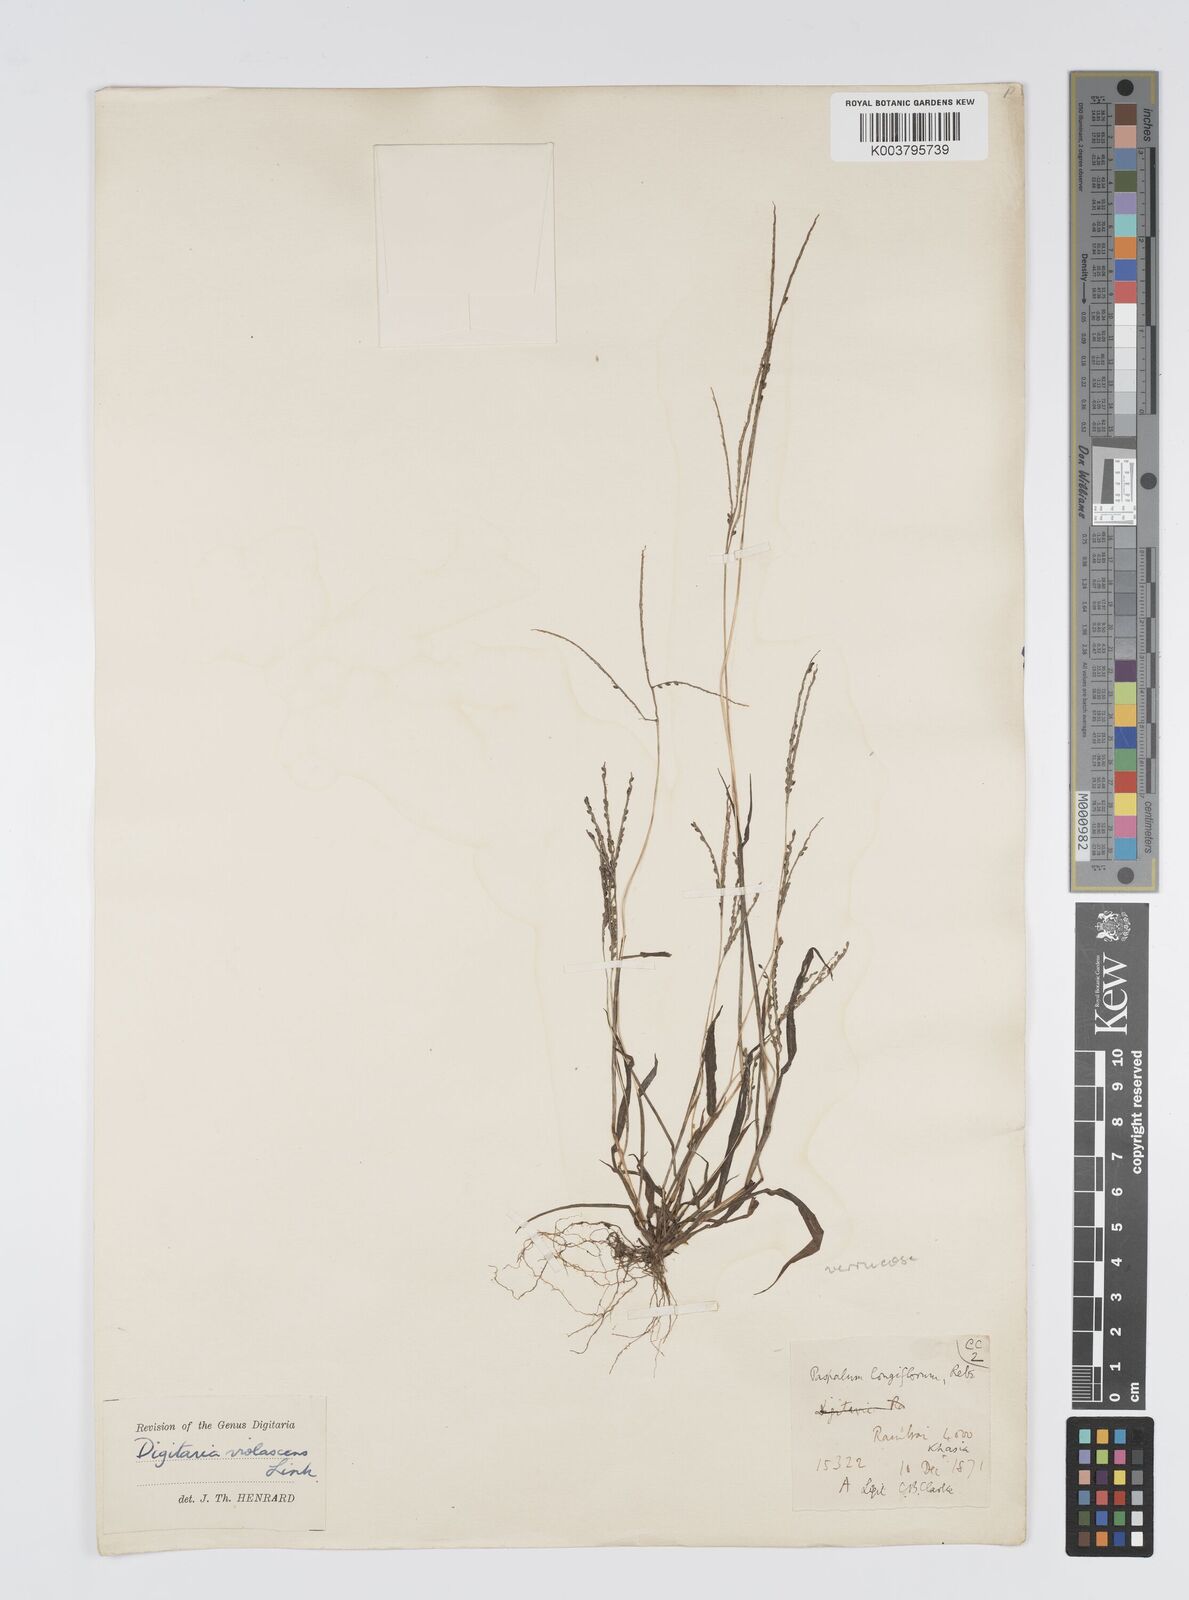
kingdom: Plantae
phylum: Tracheophyta
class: Liliopsida
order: Poales
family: Poaceae
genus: Digitaria
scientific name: Digitaria violascens
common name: Violet crabgrass
